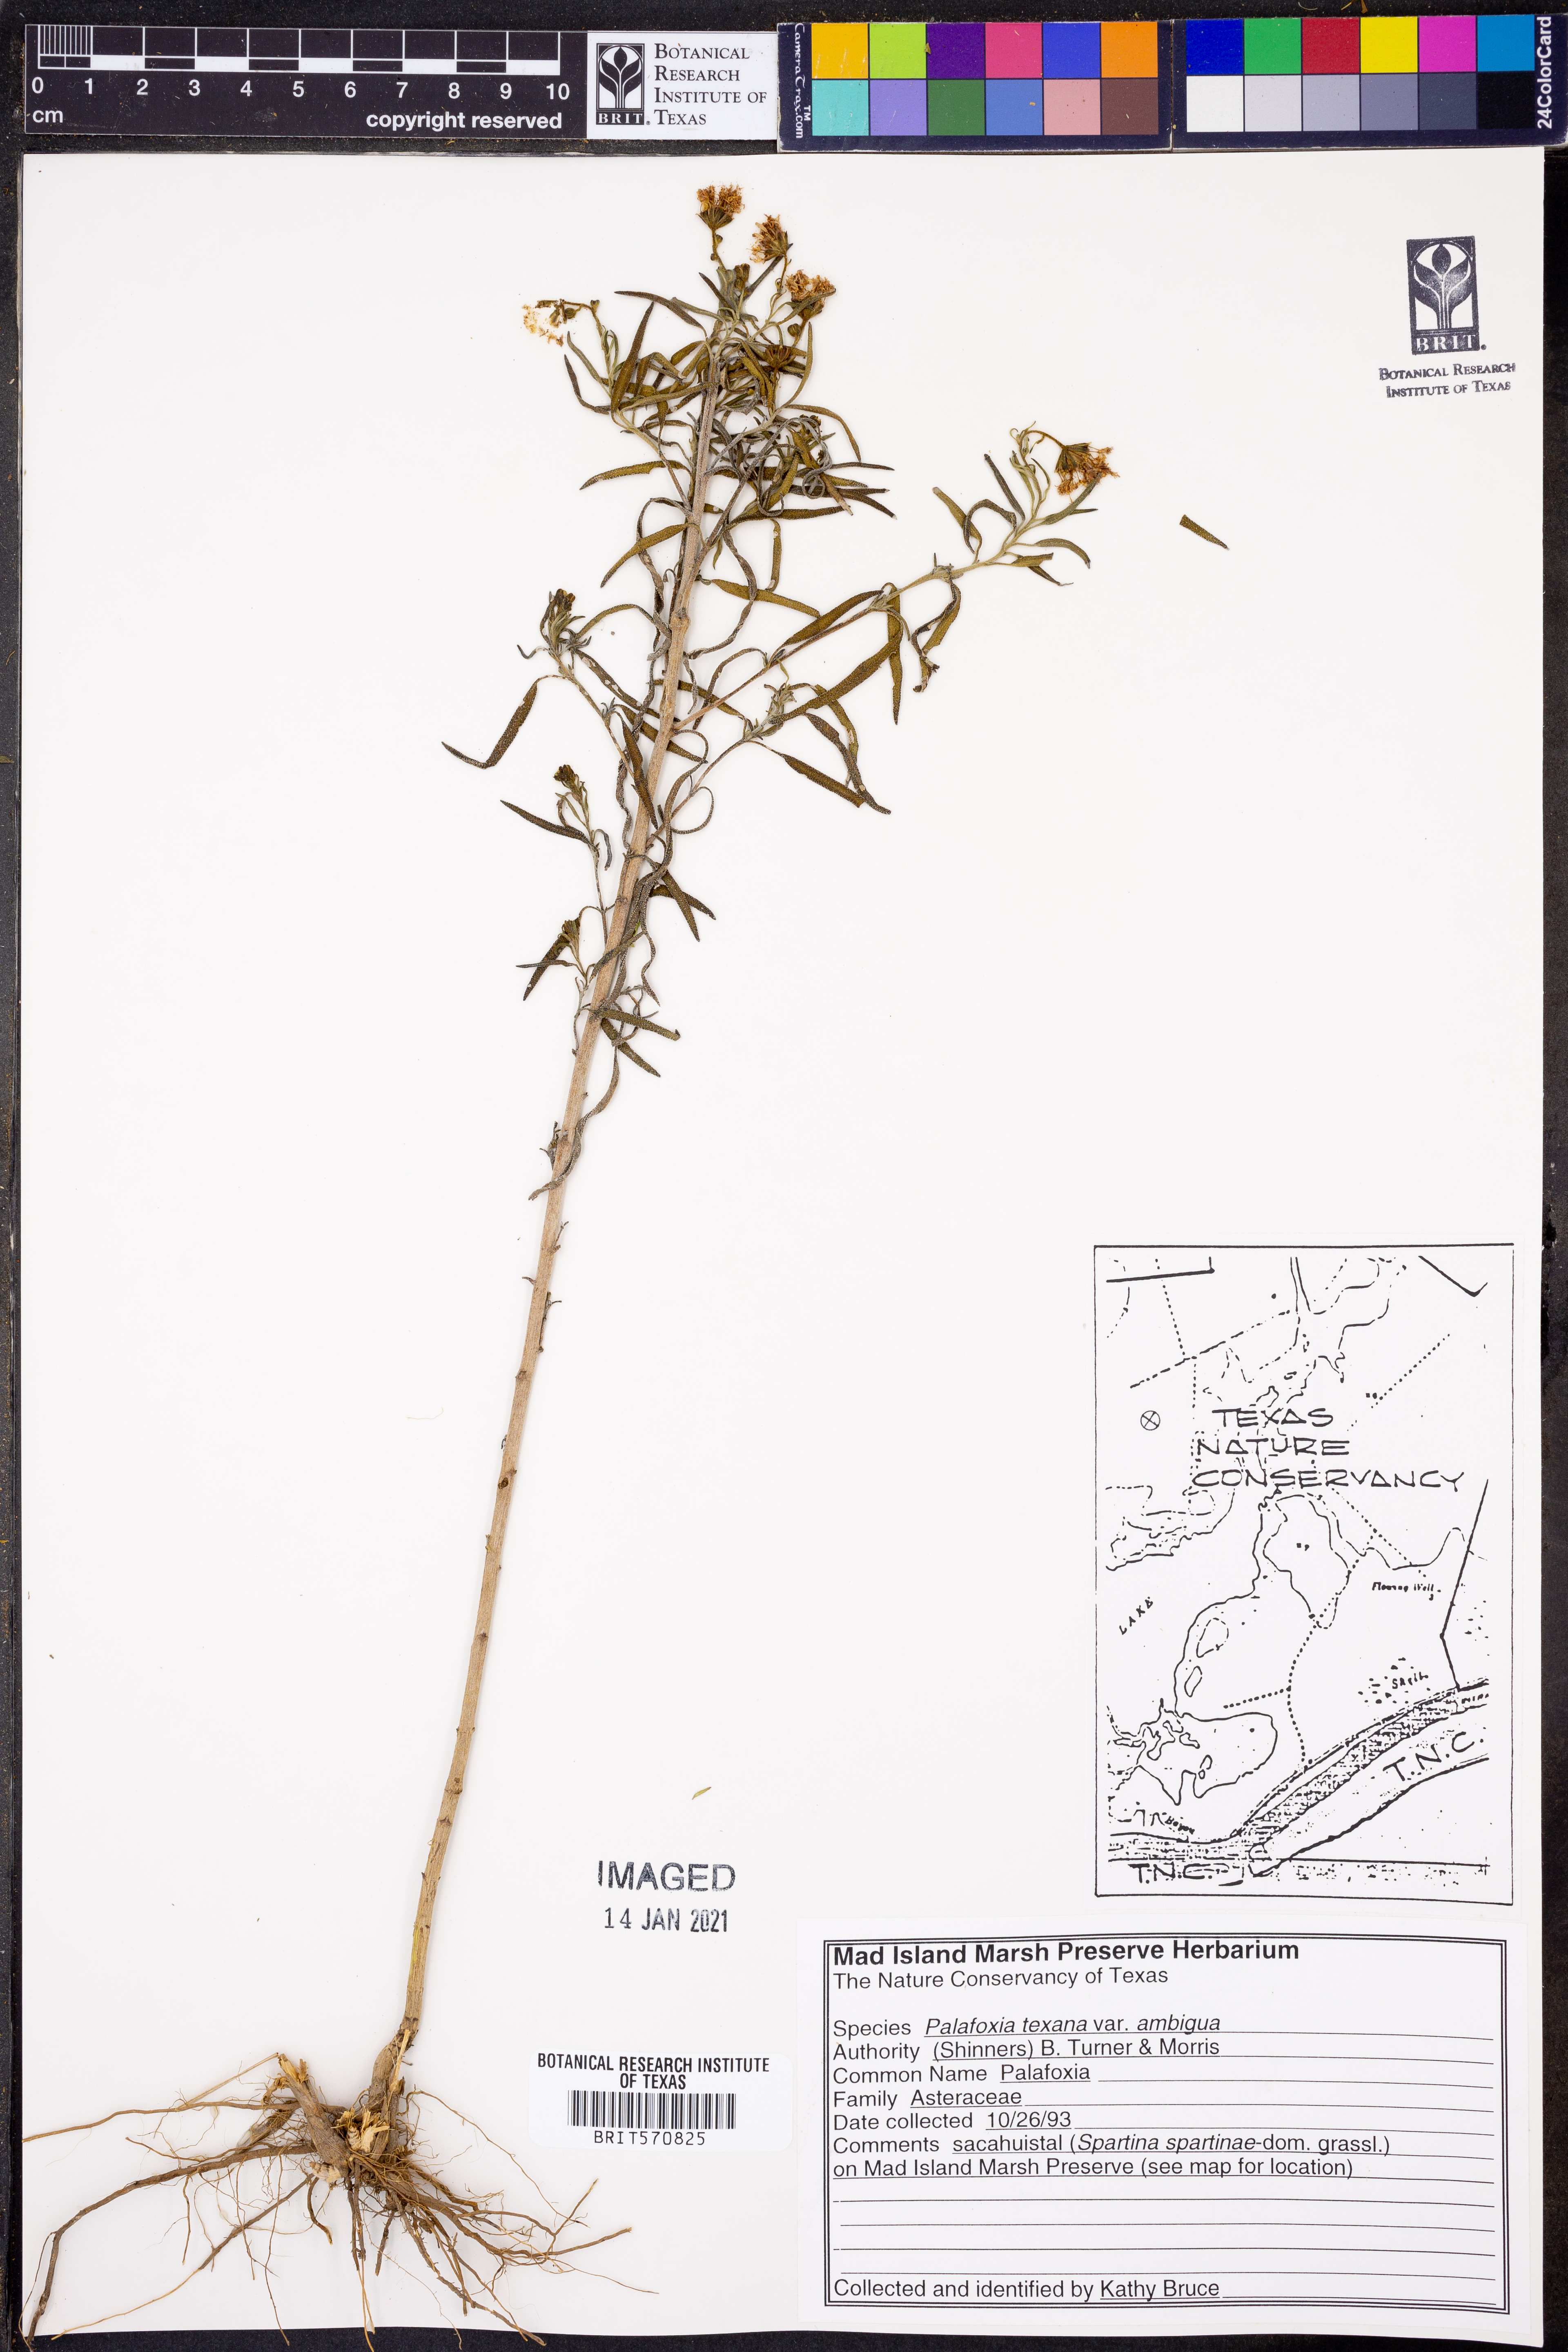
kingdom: Plantae
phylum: Tracheophyta
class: Magnoliopsida
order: Asterales
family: Asteraceae
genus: Palafoxia
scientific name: Palafoxia texana
